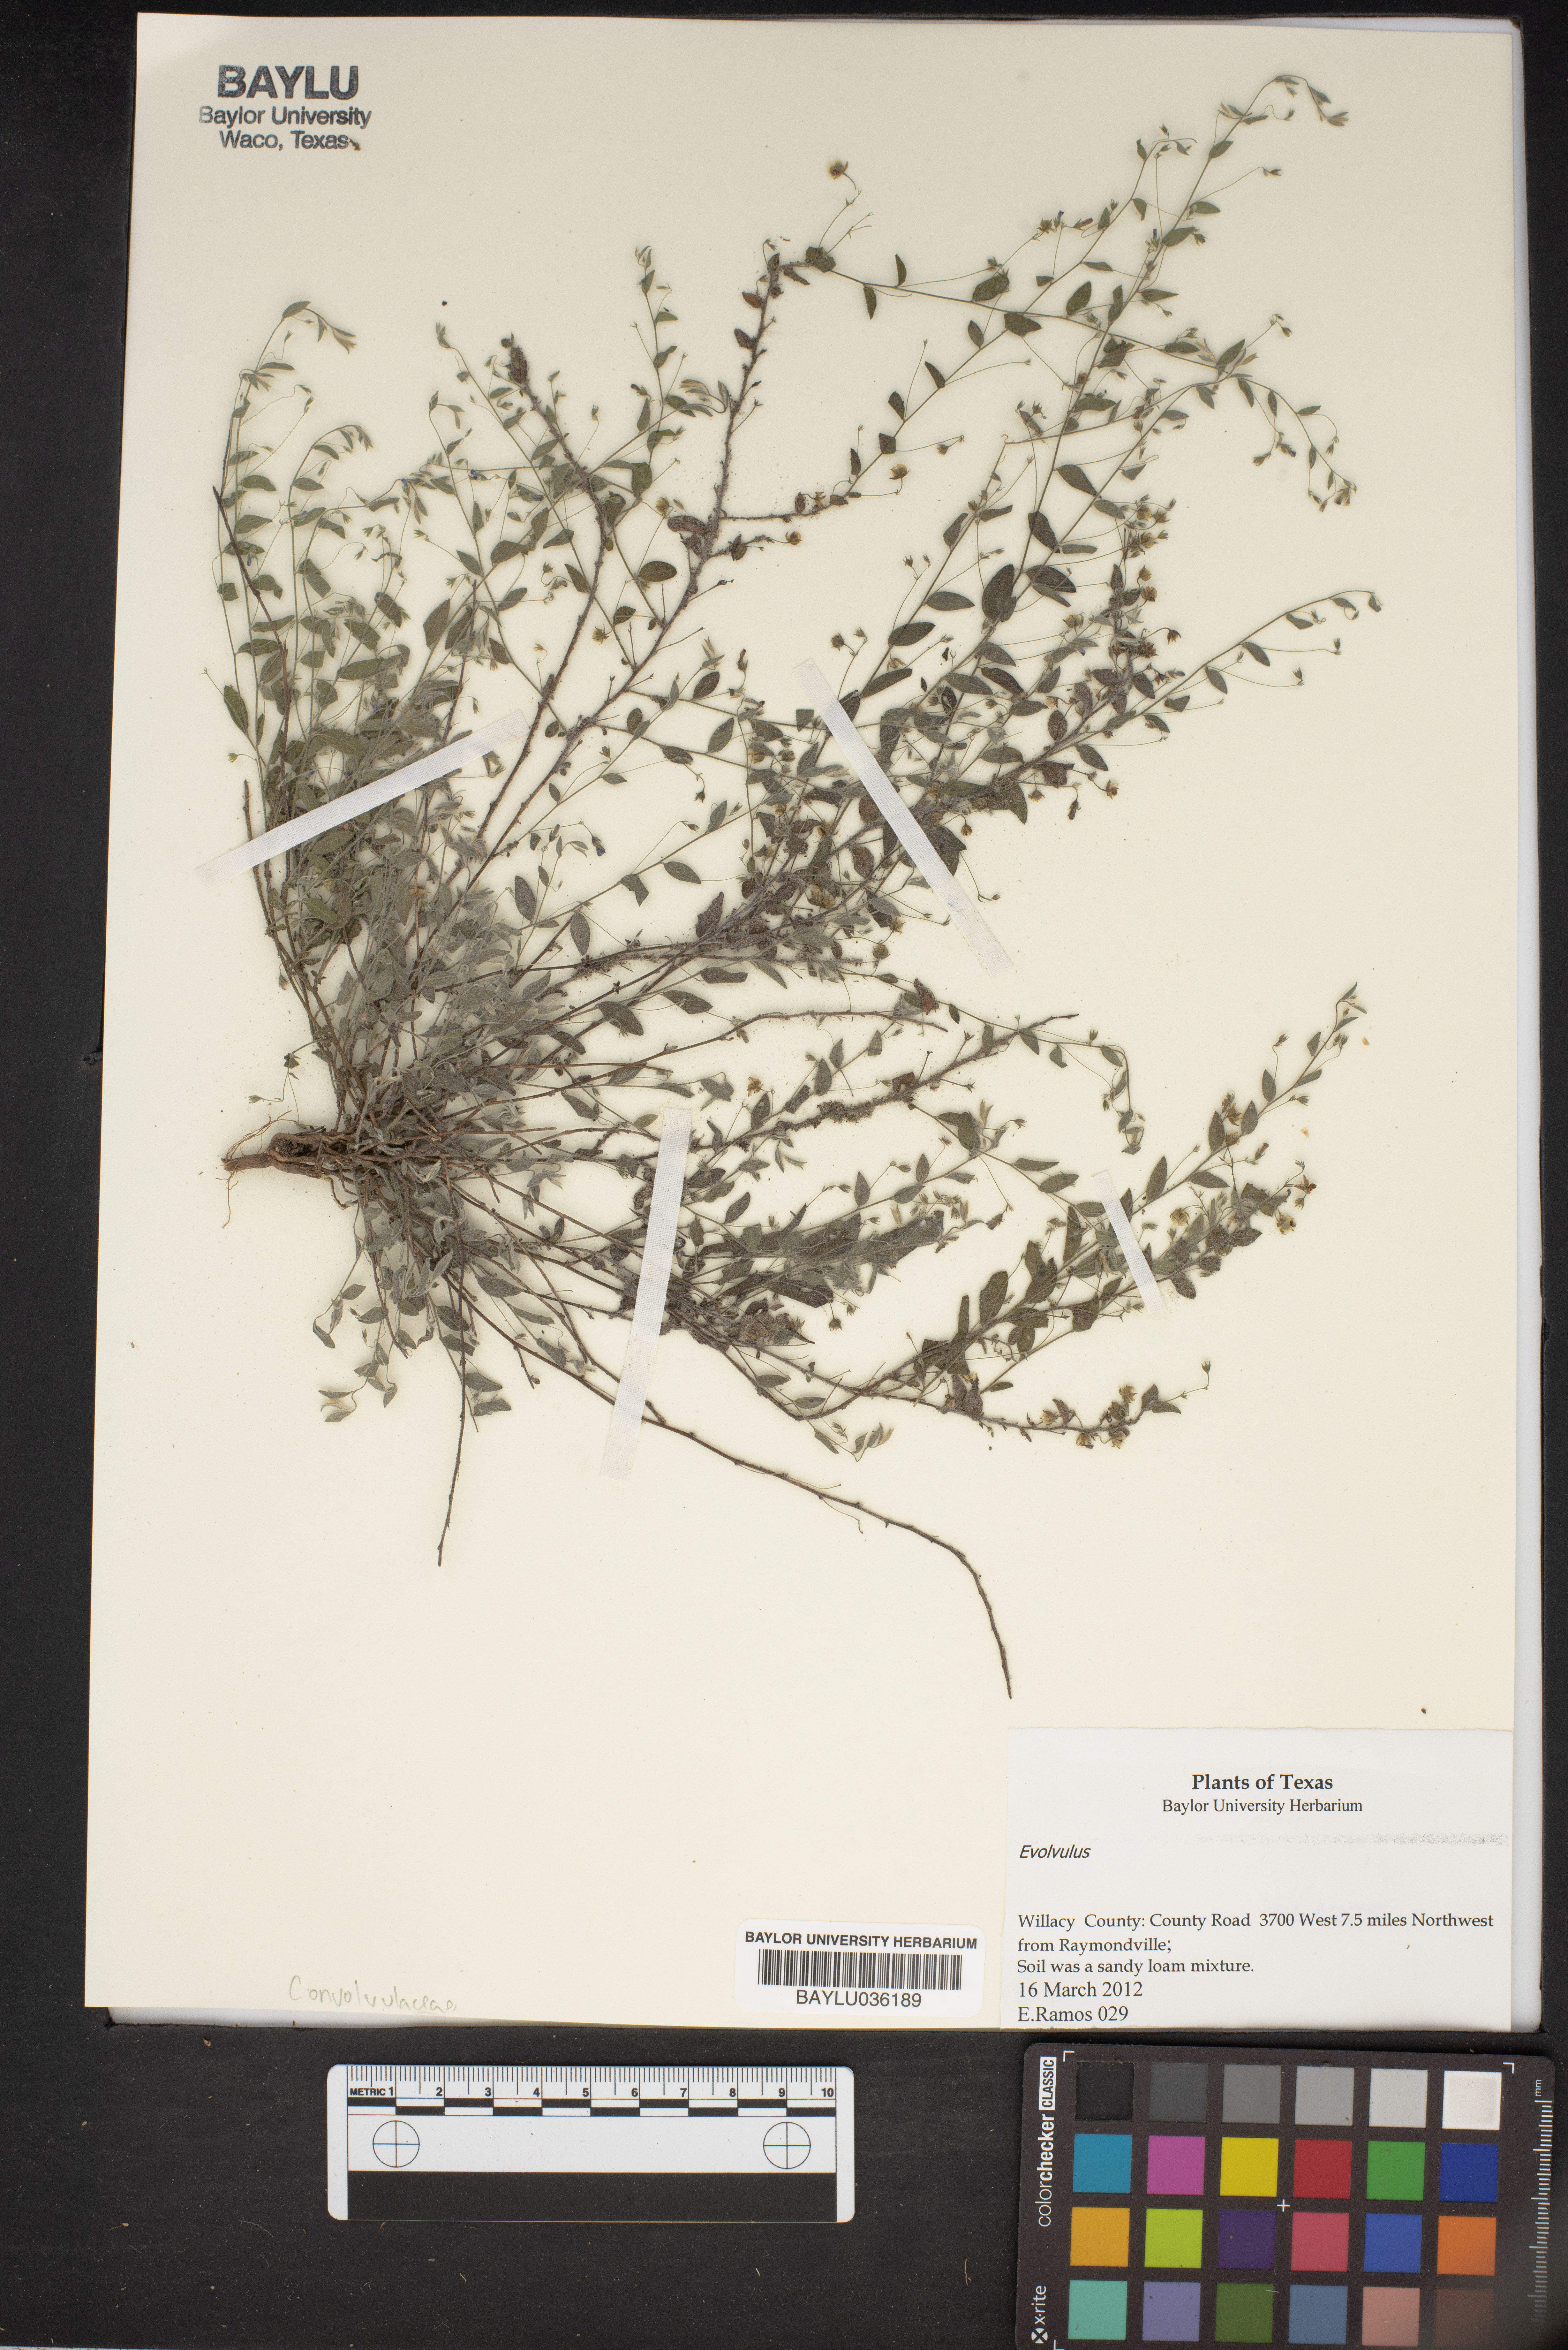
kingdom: Plantae
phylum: Tracheophyta
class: Magnoliopsida
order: Solanales
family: Convolvulaceae
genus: Evolvulus
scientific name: Evolvulus
